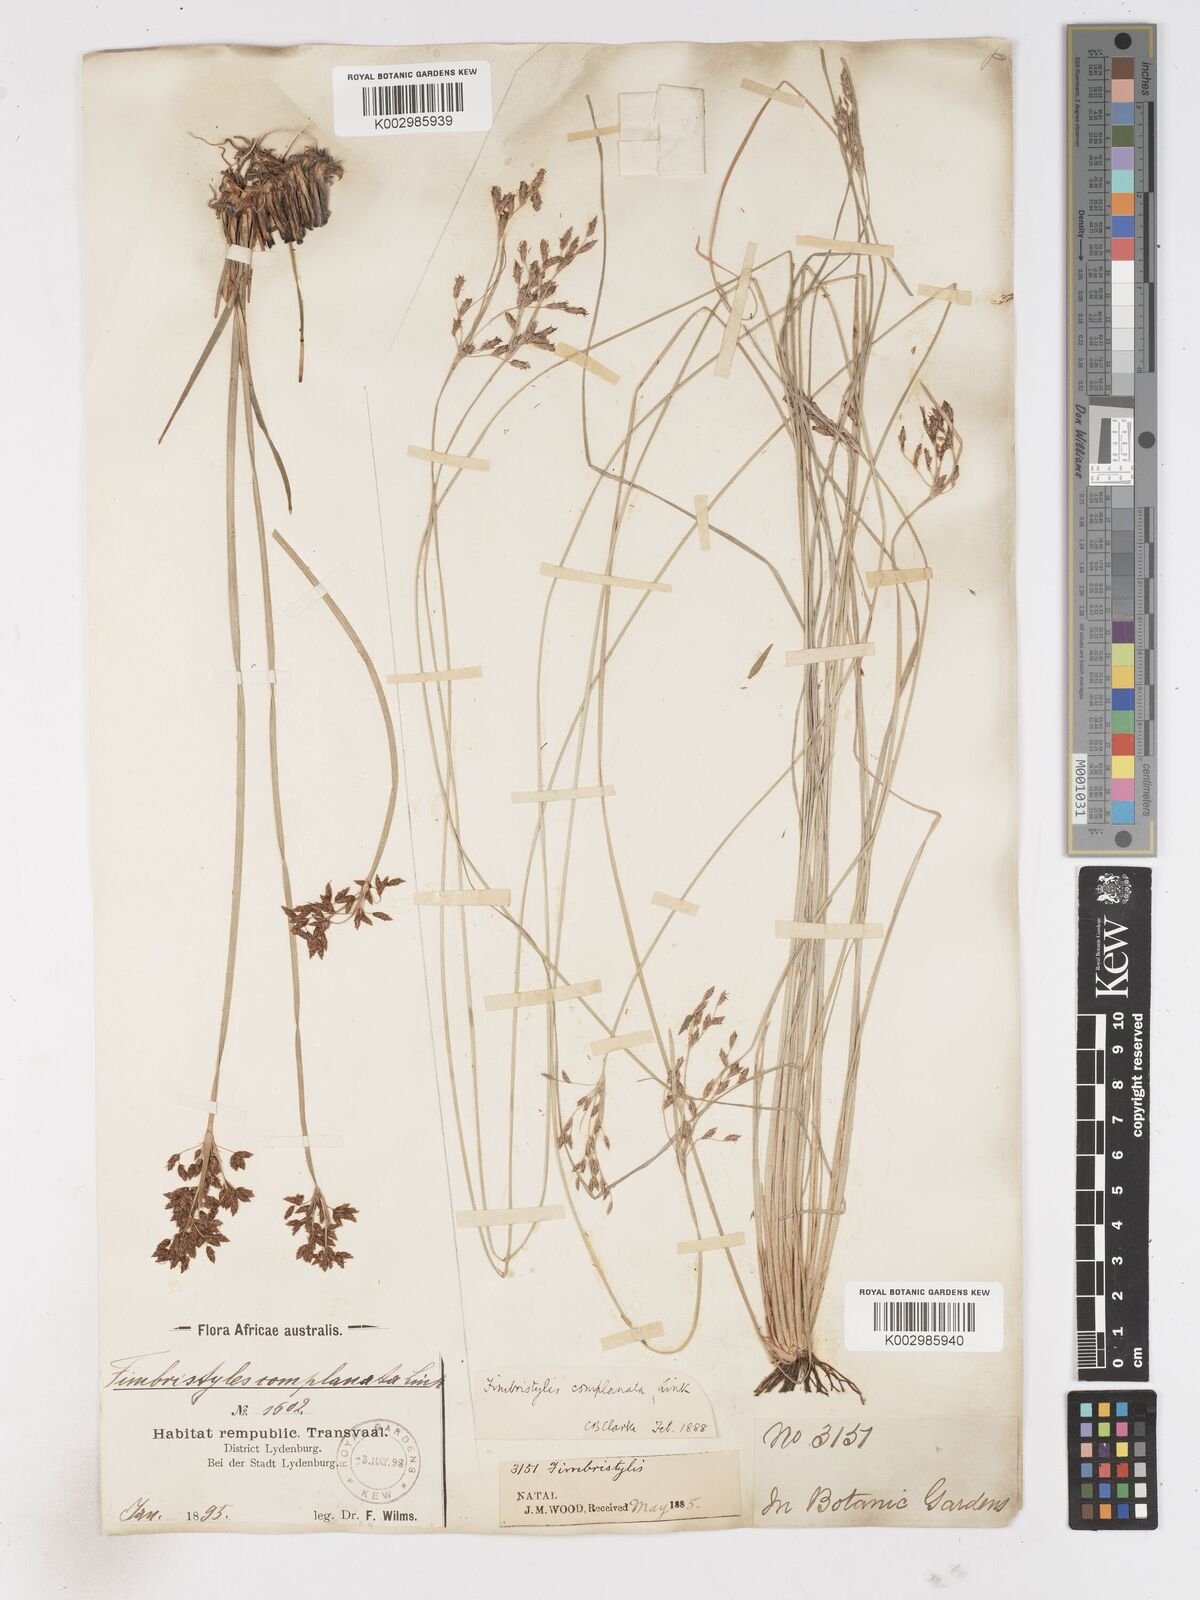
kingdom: Plantae
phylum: Tracheophyta
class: Liliopsida
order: Poales
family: Cyperaceae
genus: Fimbristylis
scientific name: Fimbristylis complanata
